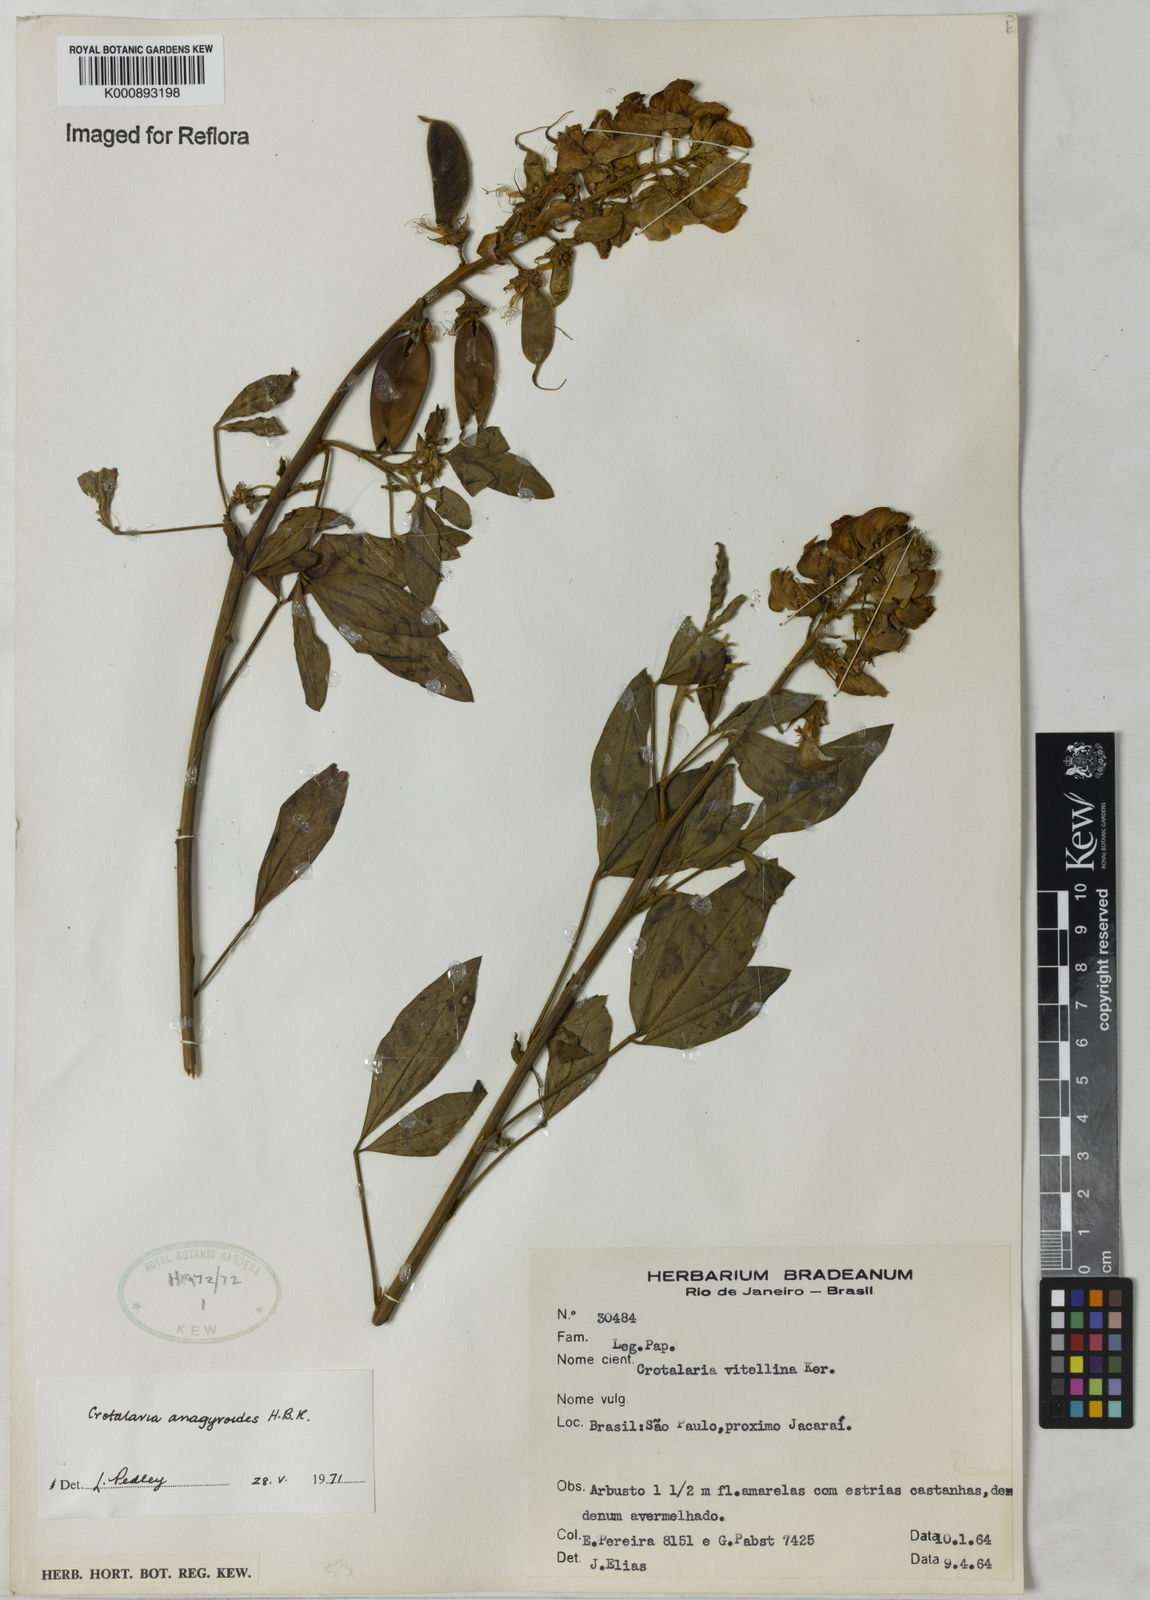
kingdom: Plantae
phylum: Tracheophyta
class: Magnoliopsida
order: Fabales
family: Fabaceae
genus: Crotalaria
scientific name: Crotalaria micans
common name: Caracas rattlebox
